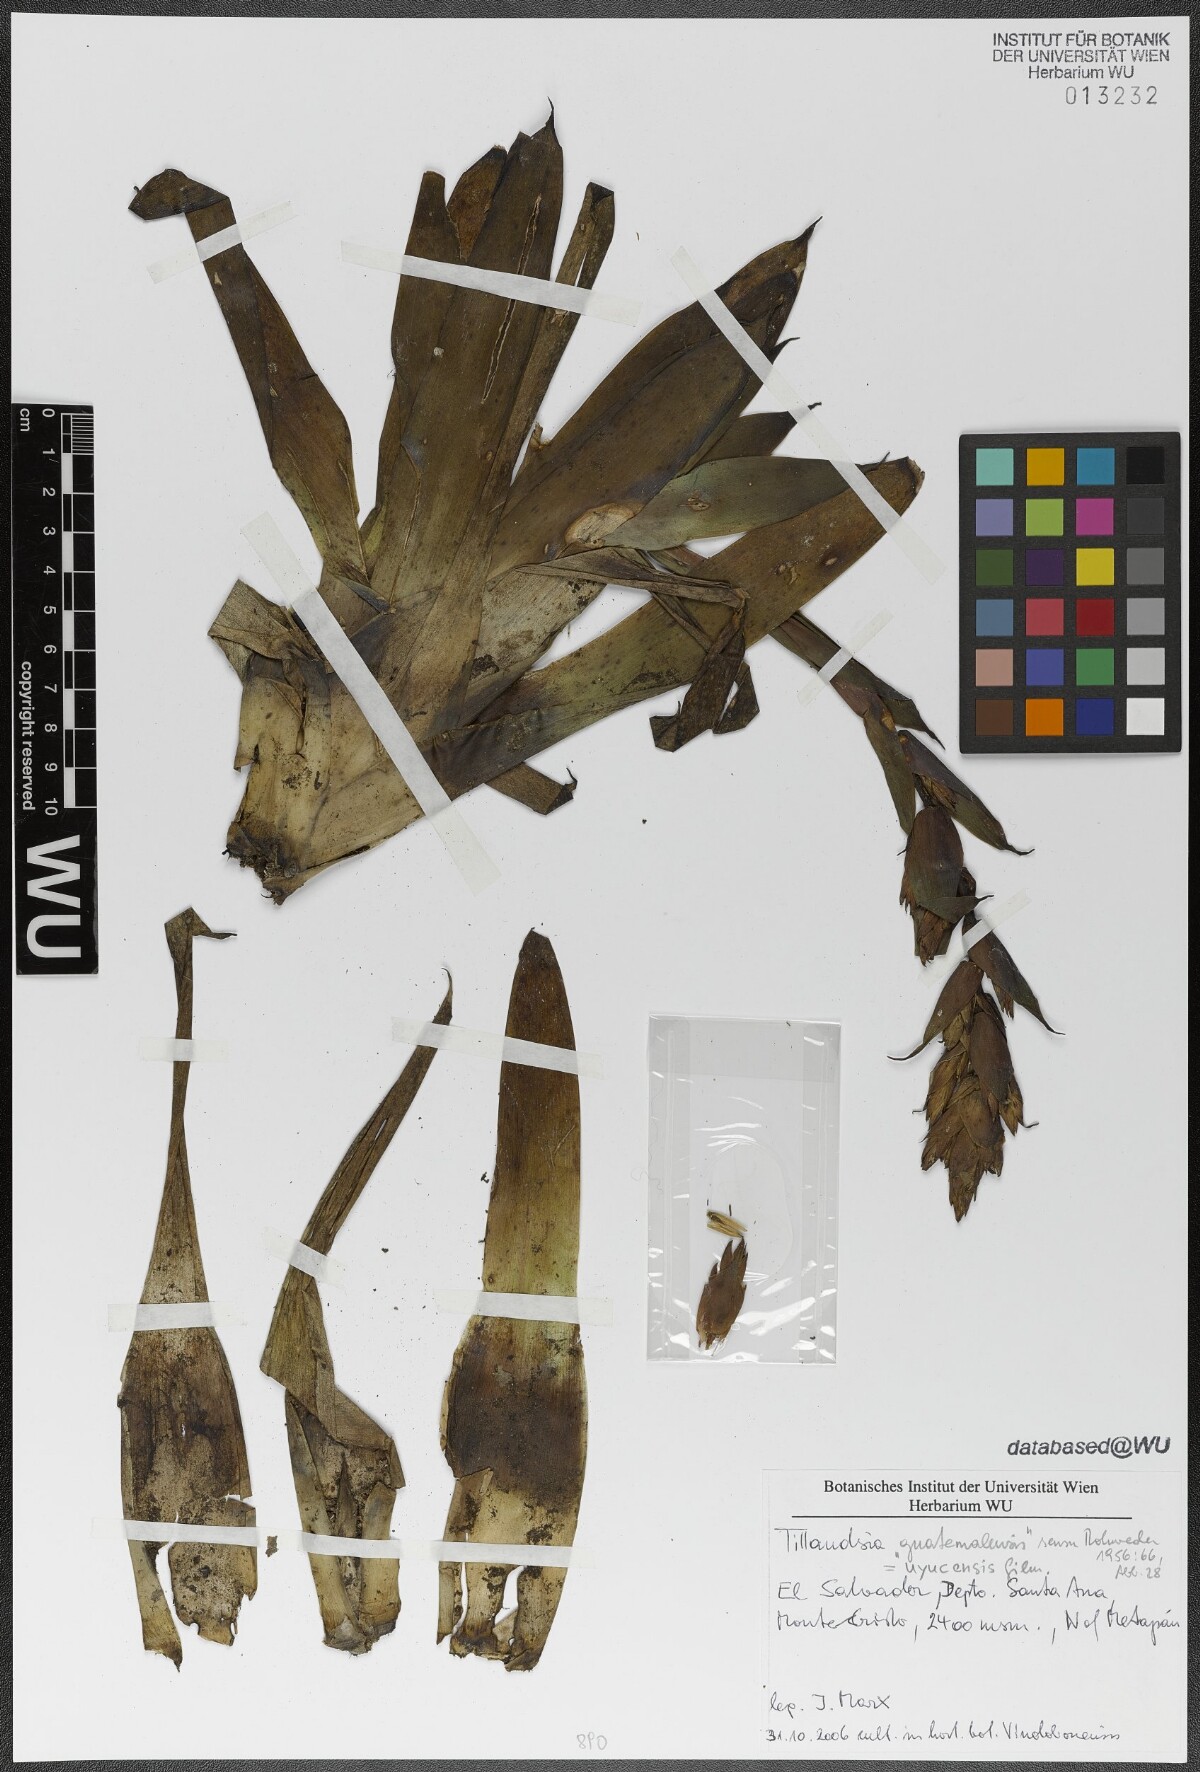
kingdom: Plantae
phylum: Tracheophyta
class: Liliopsida
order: Poales
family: Bromeliaceae
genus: Tillandsia
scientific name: Tillandsia guatemalensis
